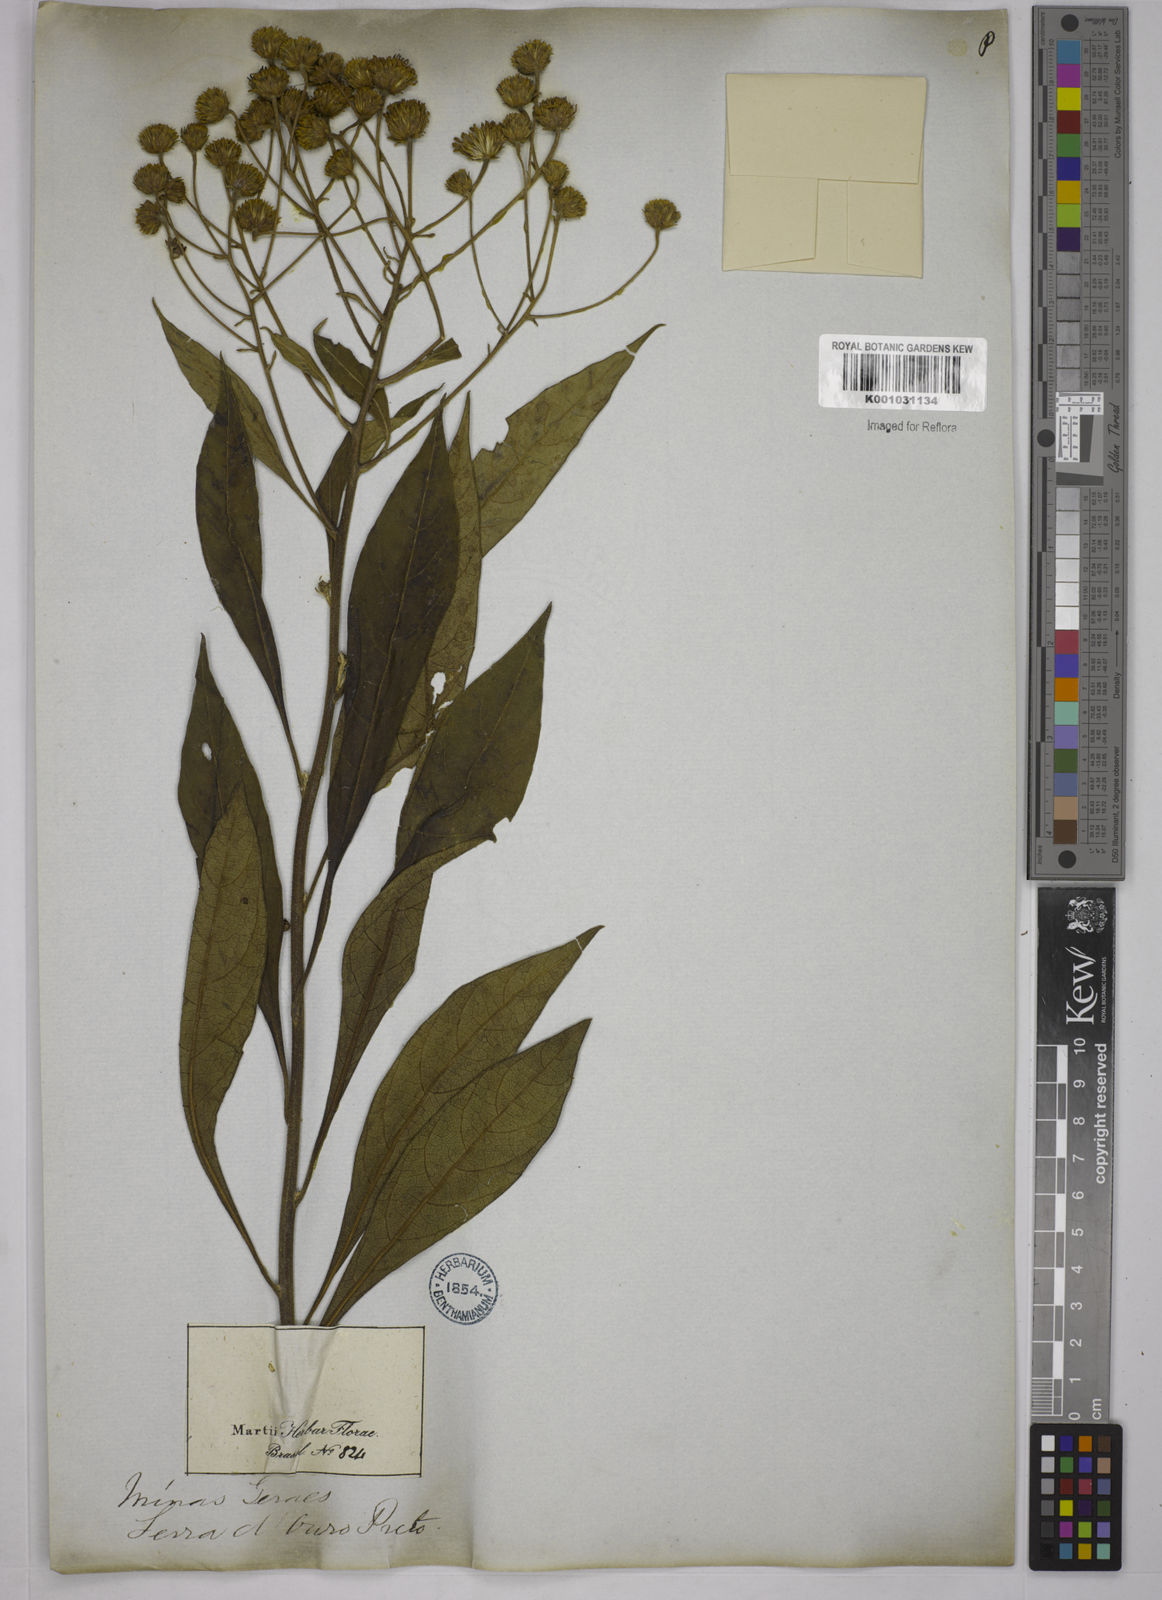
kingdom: Plantae
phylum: Tracheophyta
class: Magnoliopsida
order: Asterales
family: Asteraceae
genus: Verbesina
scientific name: Verbesina glabrata
